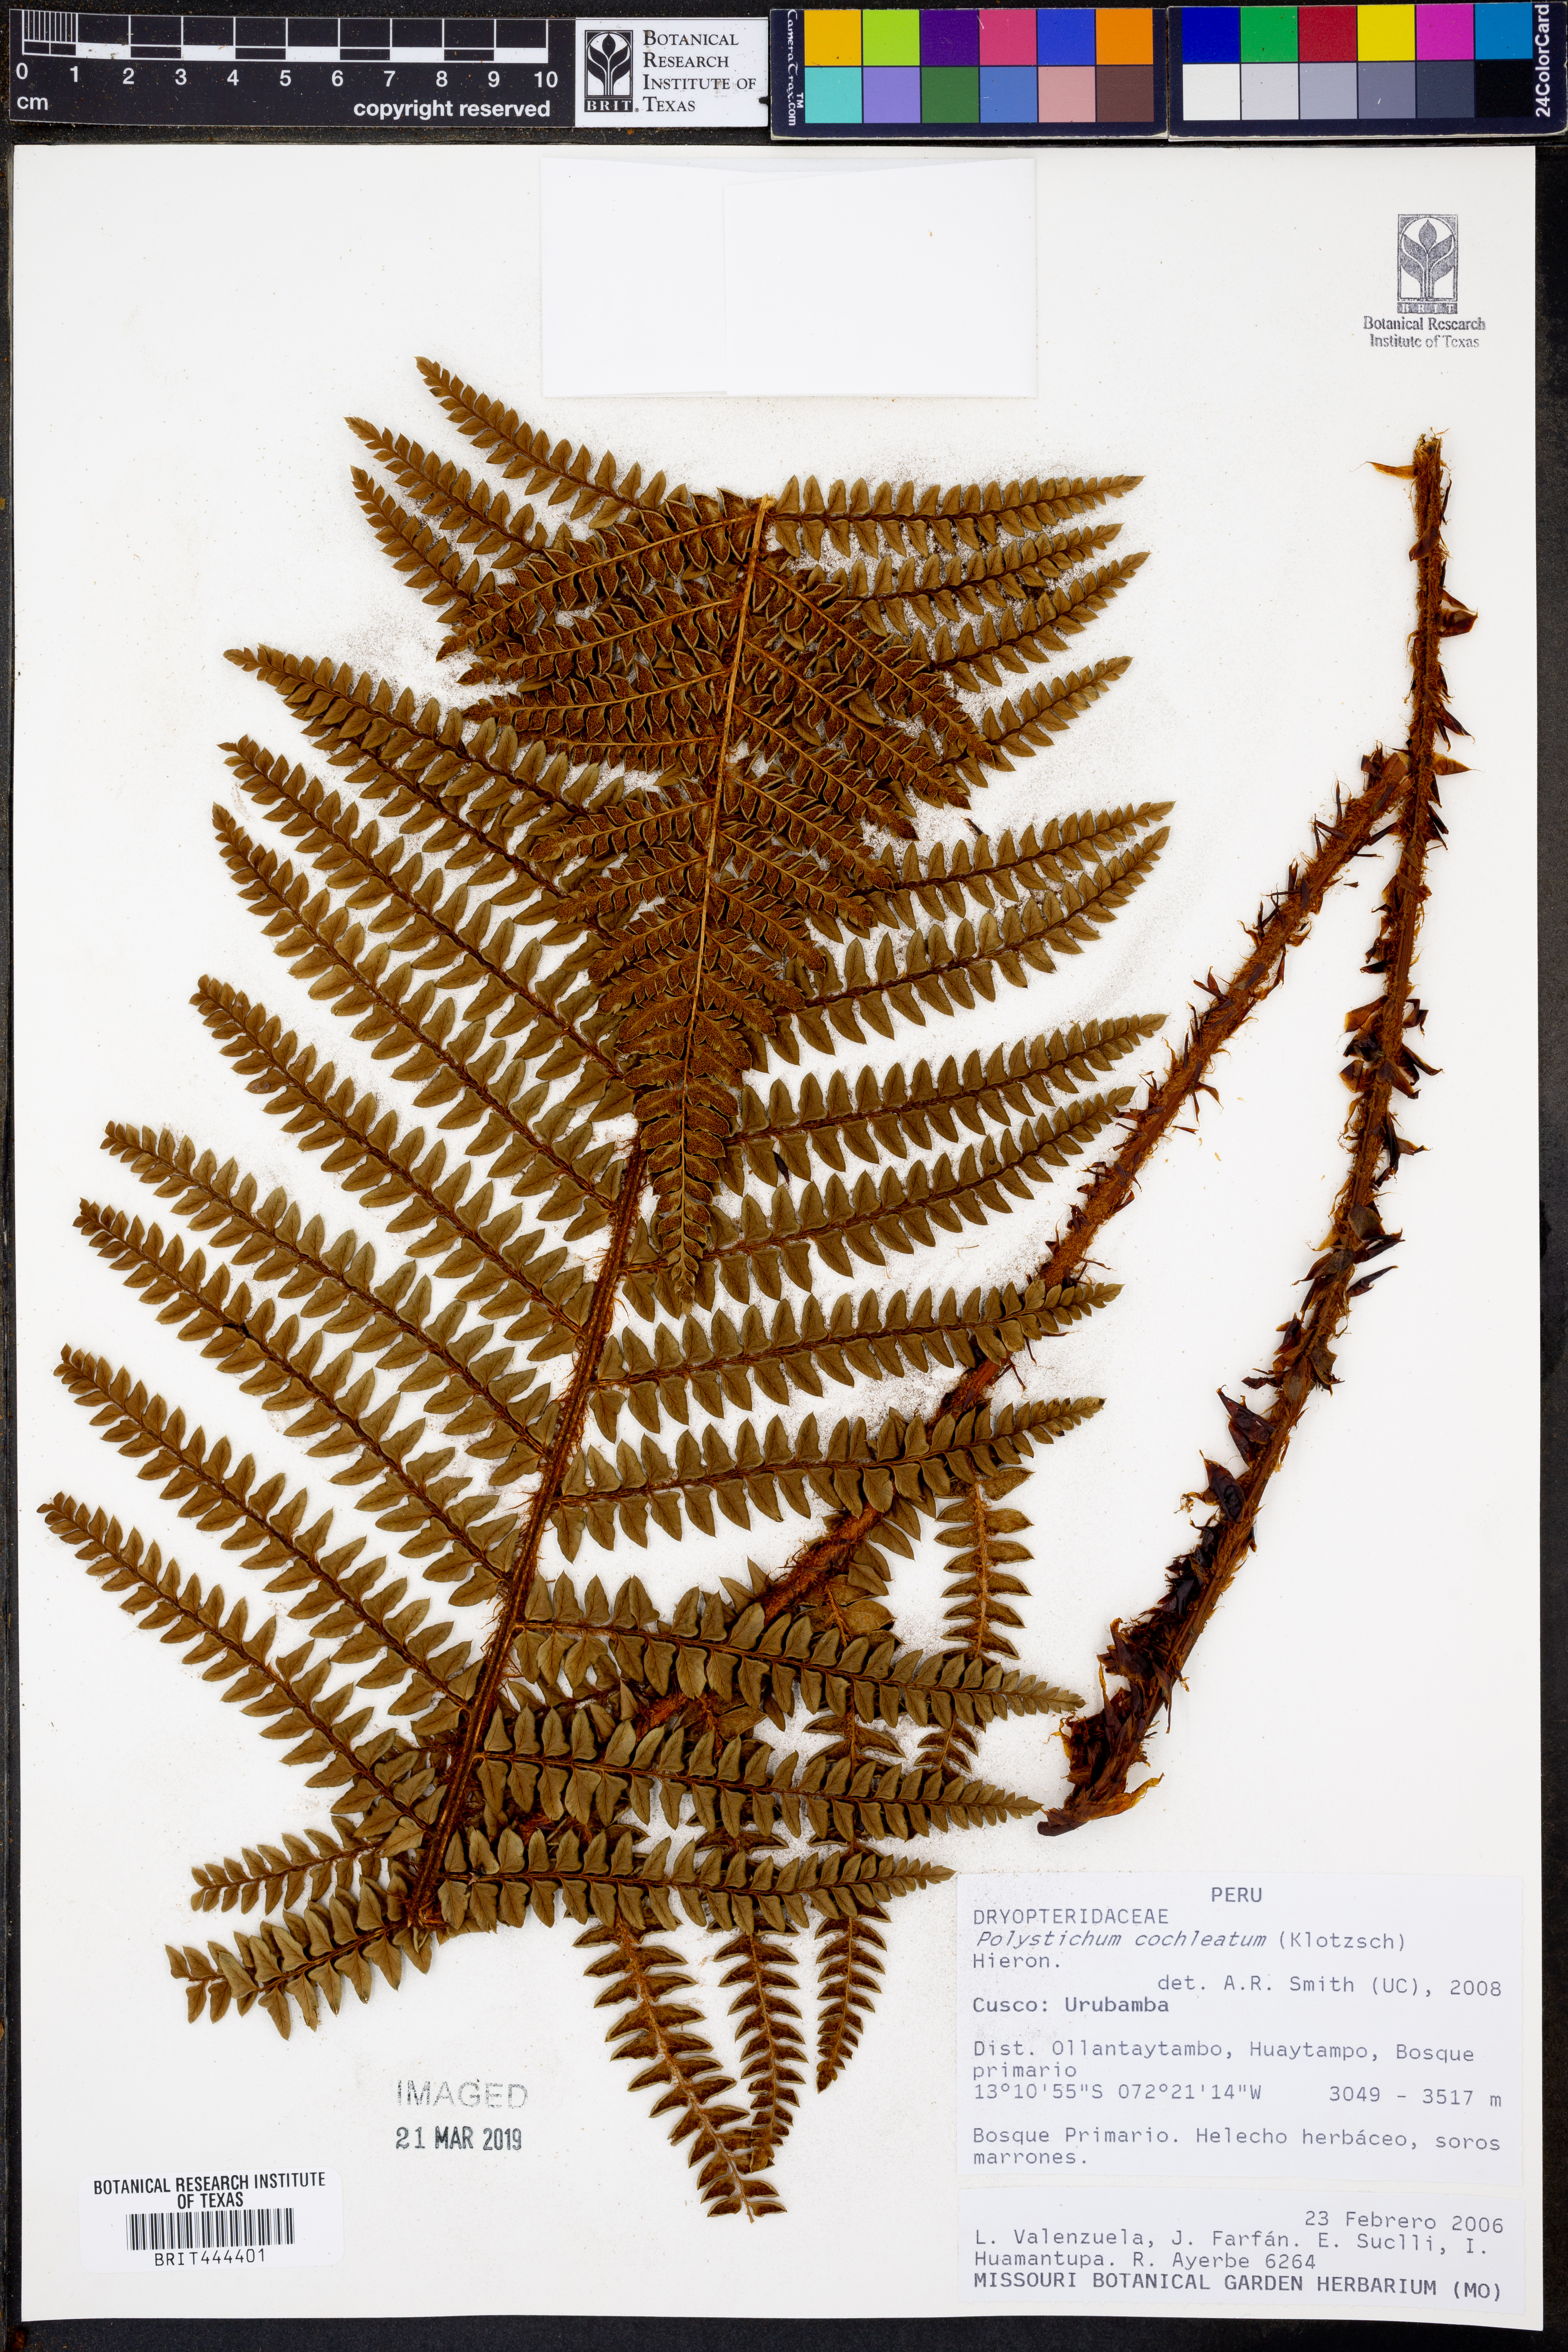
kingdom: Plantae
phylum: Tracheophyta
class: Polypodiopsida
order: Polypodiales
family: Dryopteridaceae
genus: Polystichum
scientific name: Polystichum cochleatum
